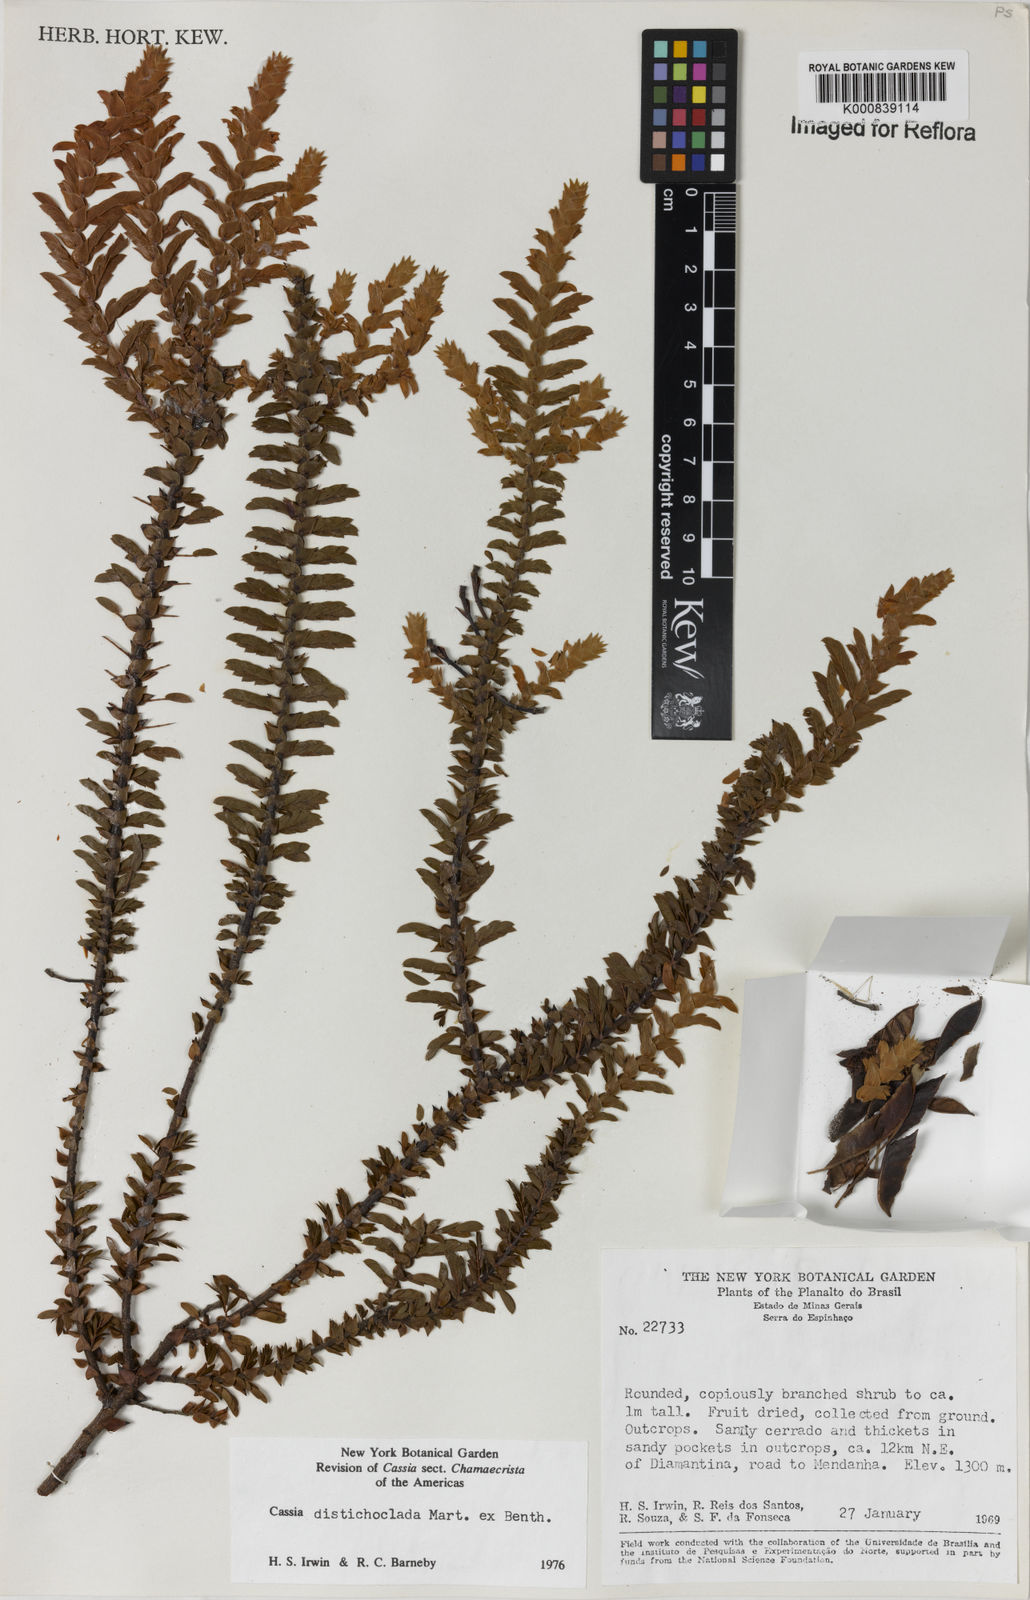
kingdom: Plantae
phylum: Tracheophyta
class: Magnoliopsida
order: Fabales
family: Fabaceae
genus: Chamaecrista
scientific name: Chamaecrista distichoclada
